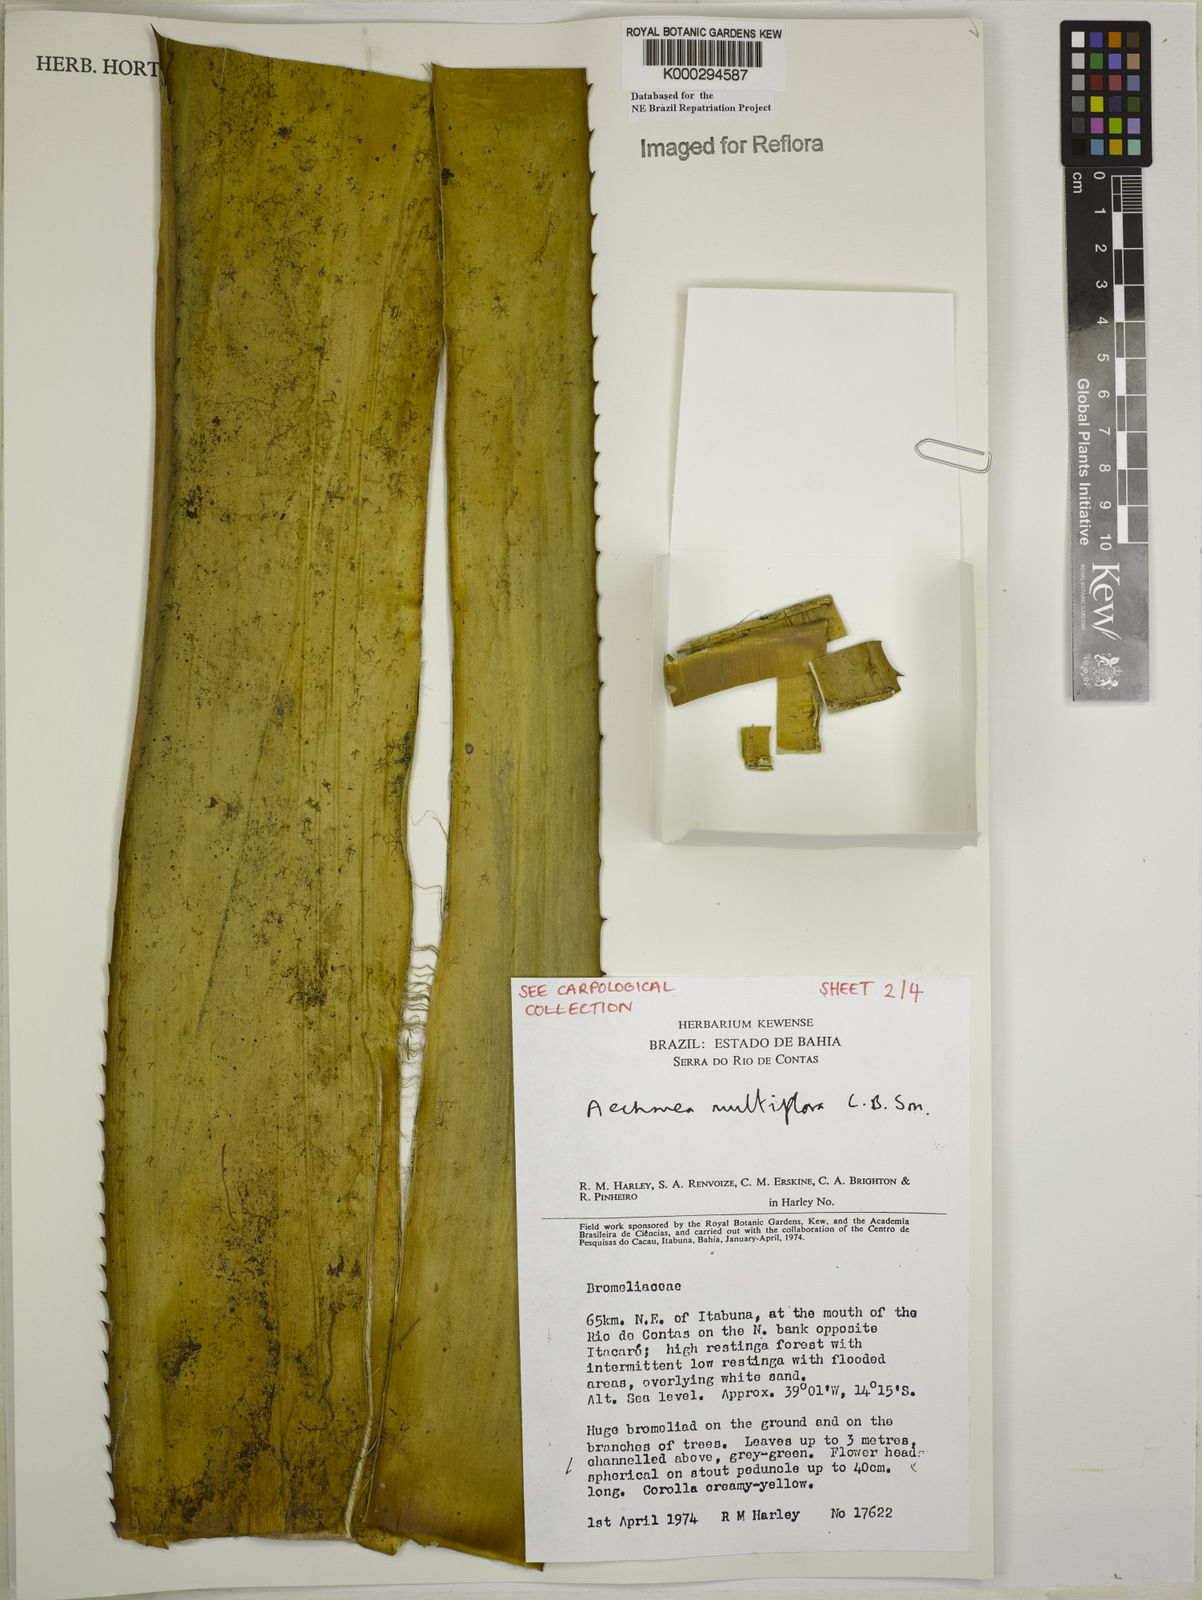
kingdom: Plantae
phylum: Tracheophyta
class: Liliopsida
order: Poales
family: Bromeliaceae
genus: Karawata
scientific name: Karawata multiflora
